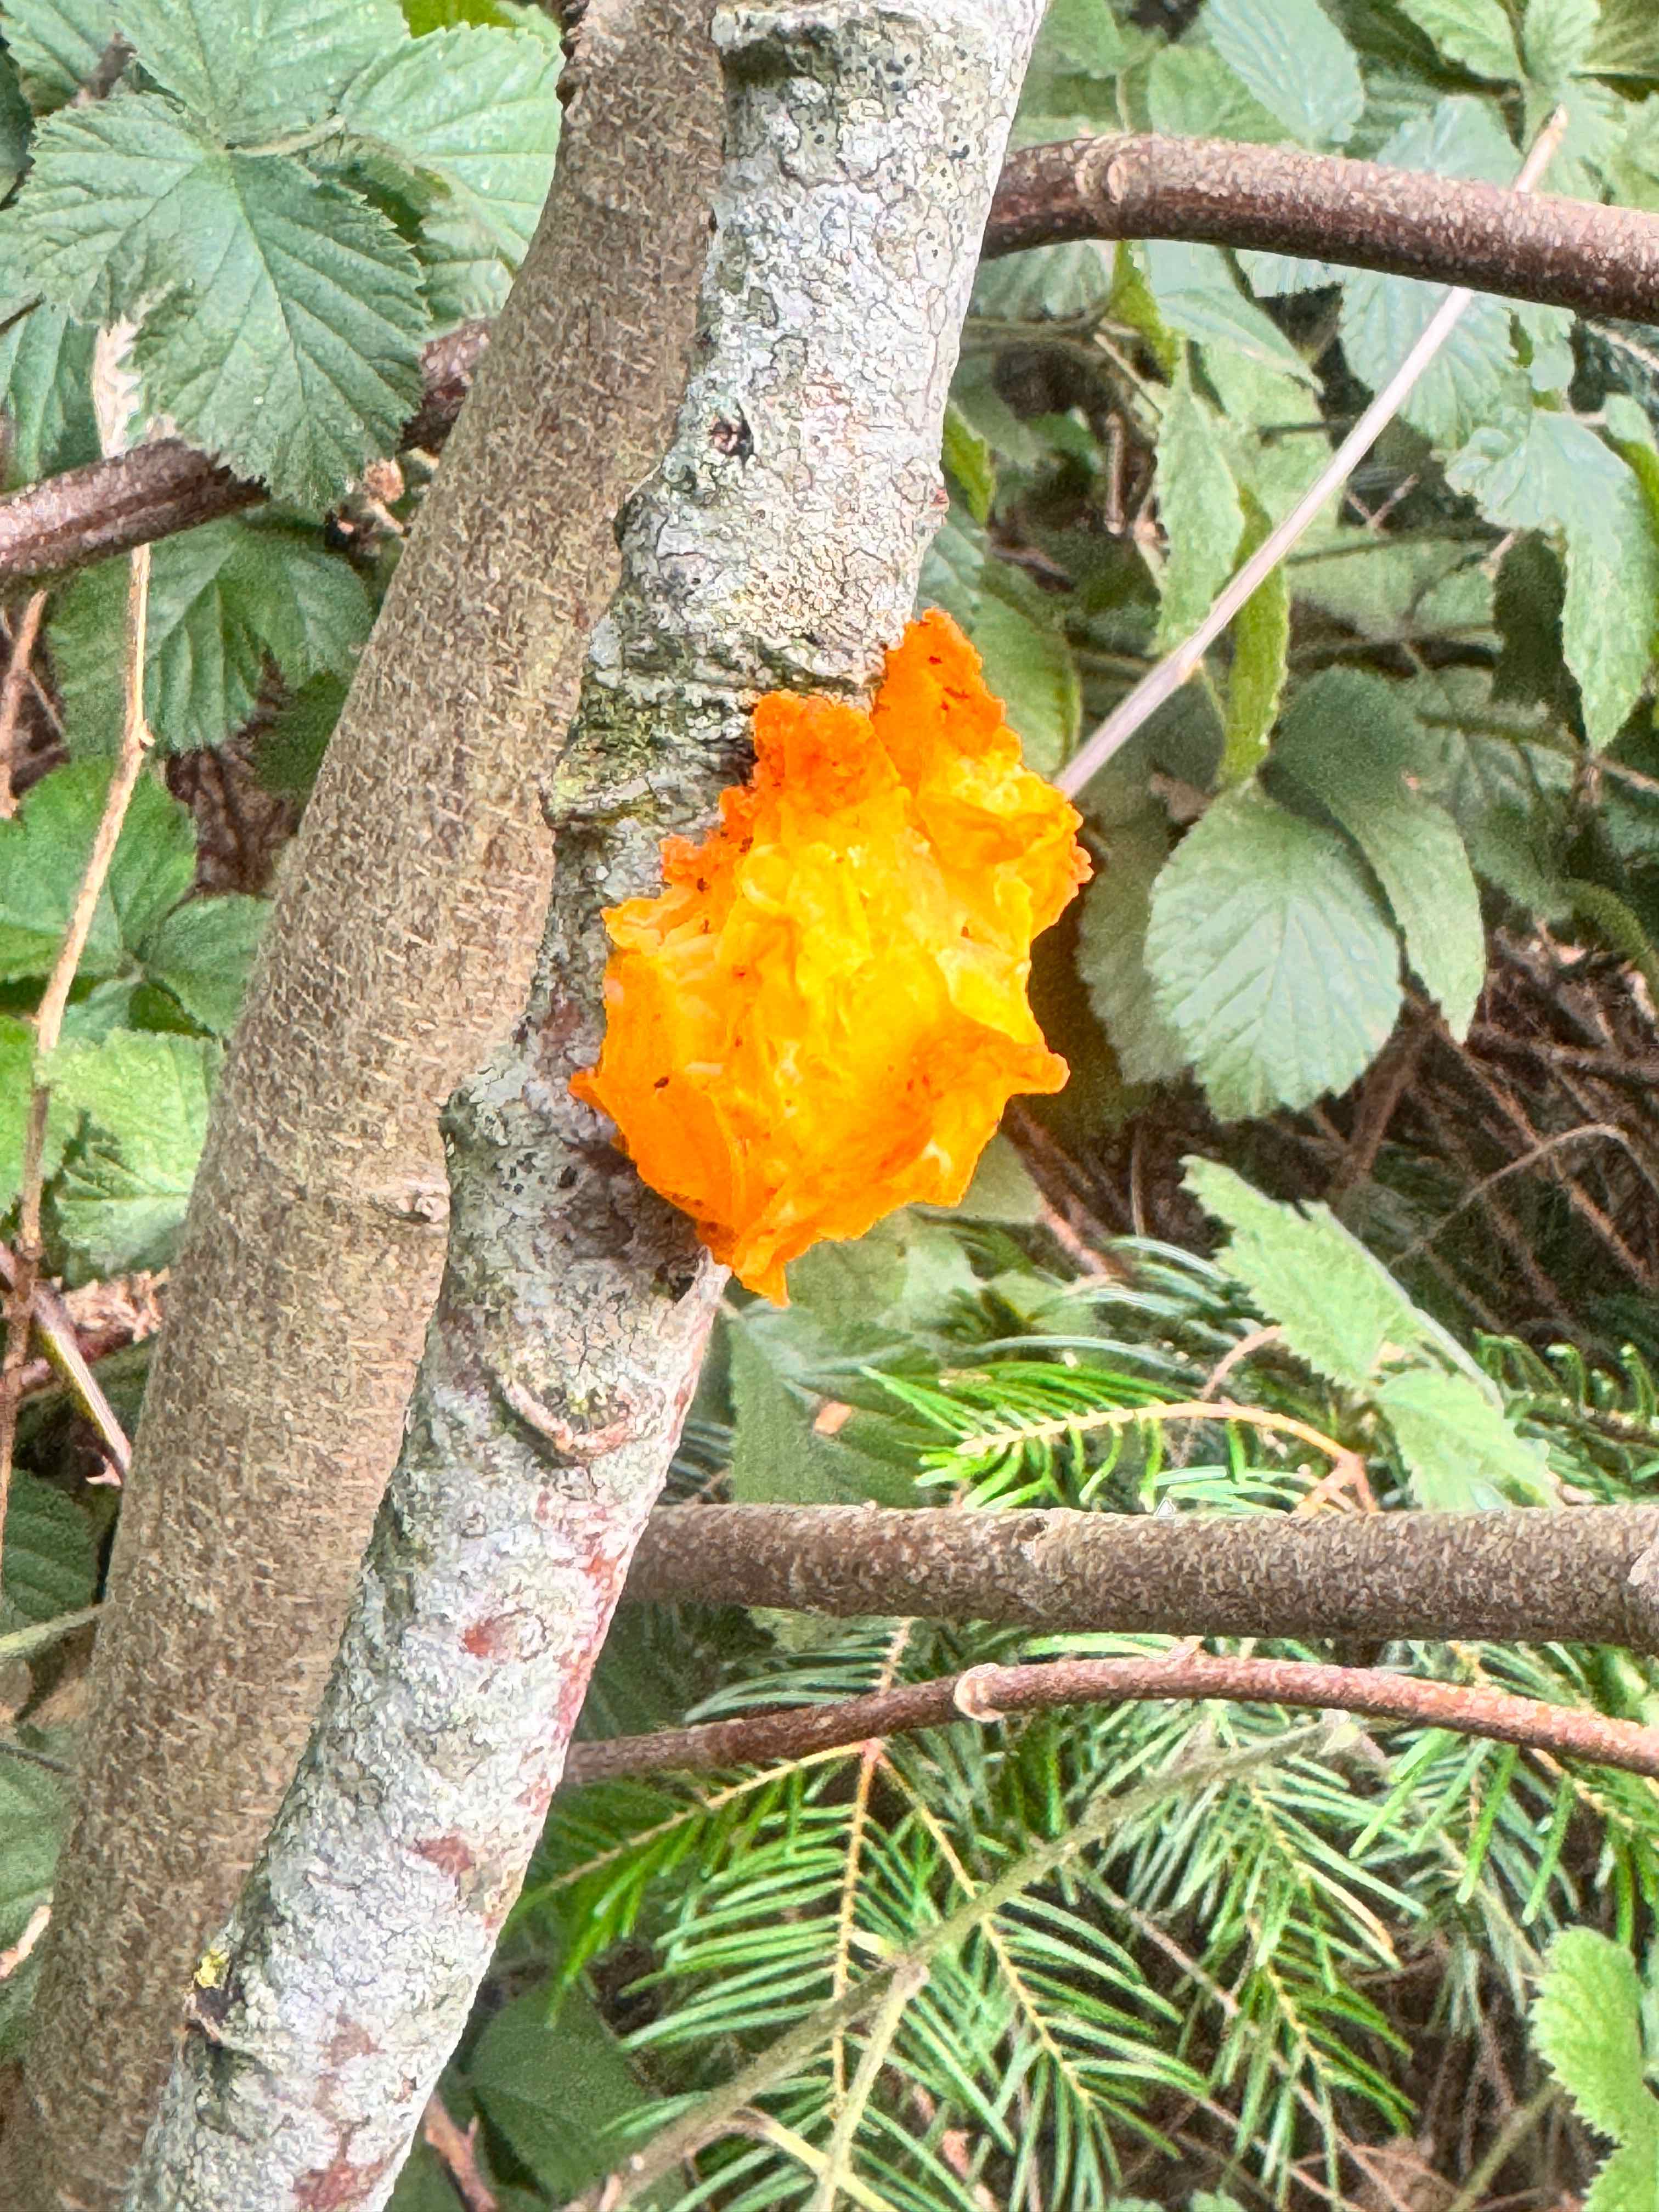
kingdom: Fungi
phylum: Basidiomycota
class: Tremellomycetes
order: Tremellales
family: Tremellaceae
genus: Tremella
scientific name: Tremella mesenterica
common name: gul bævresvamp
